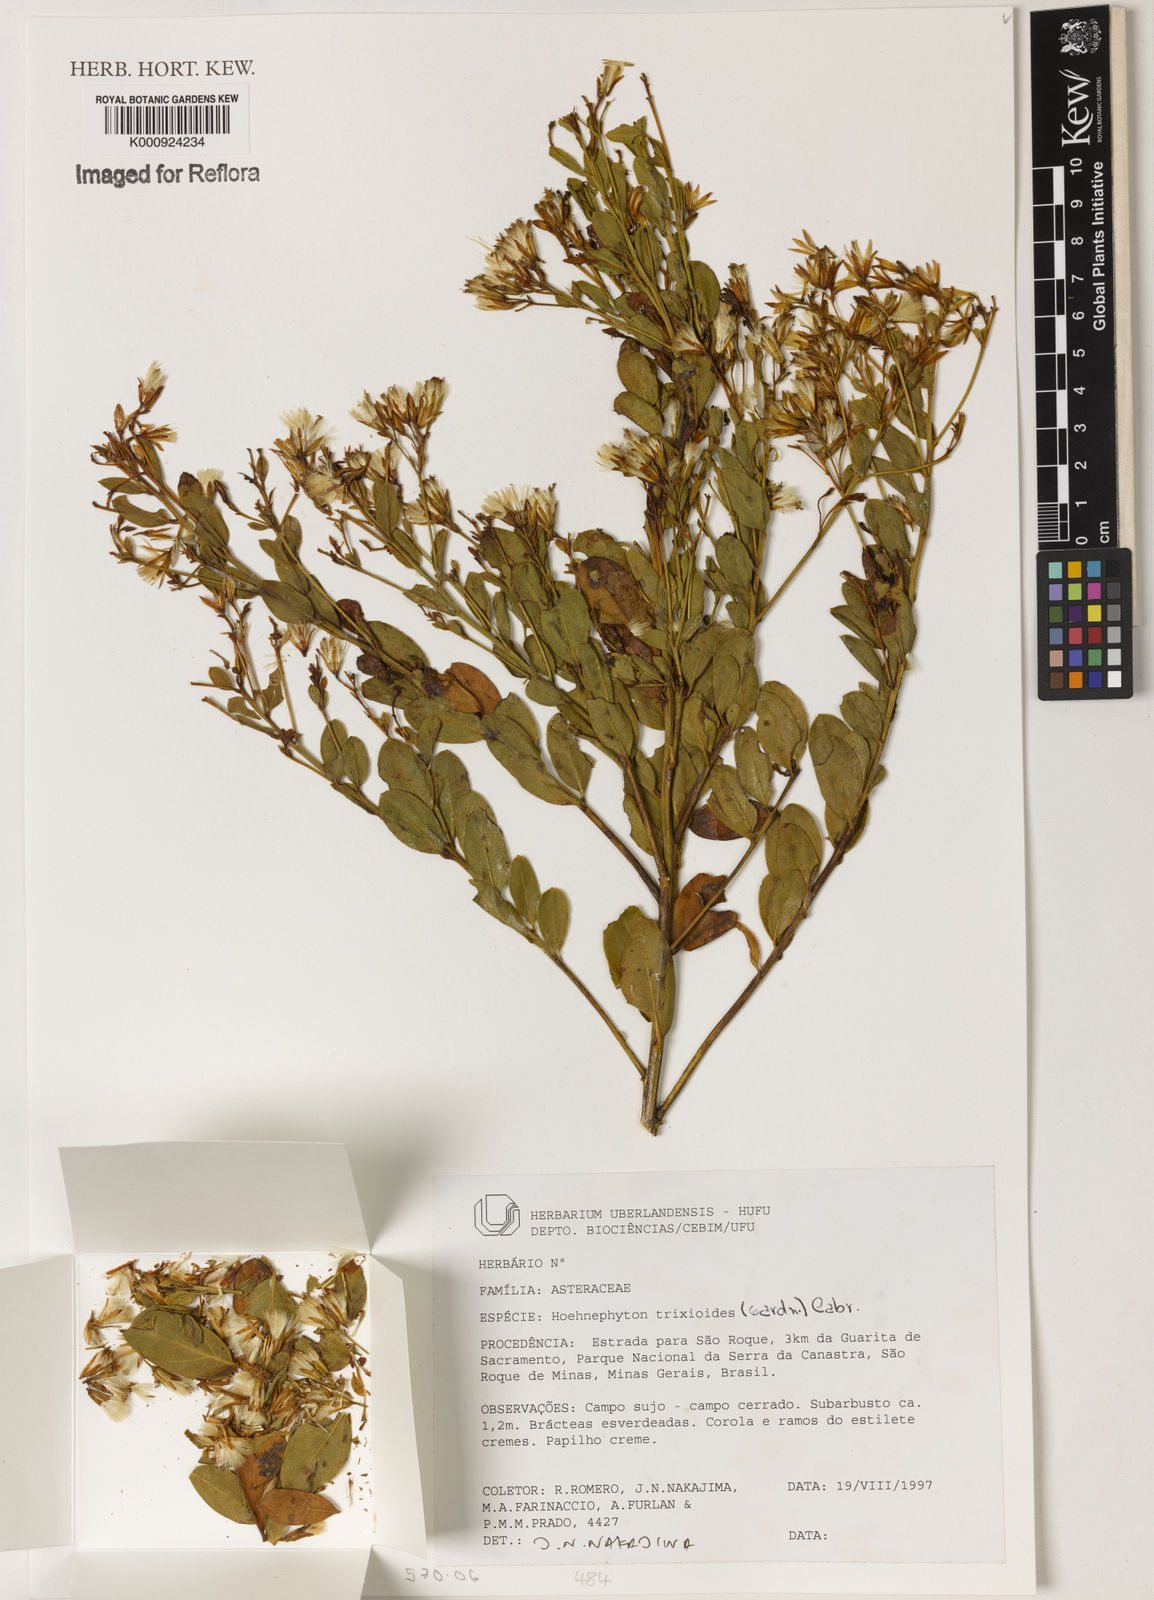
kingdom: Plantae
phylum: Tracheophyta
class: Magnoliopsida
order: Asterales
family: Asteraceae
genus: Hoehnephytum
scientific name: Hoehnephytum trixoides
